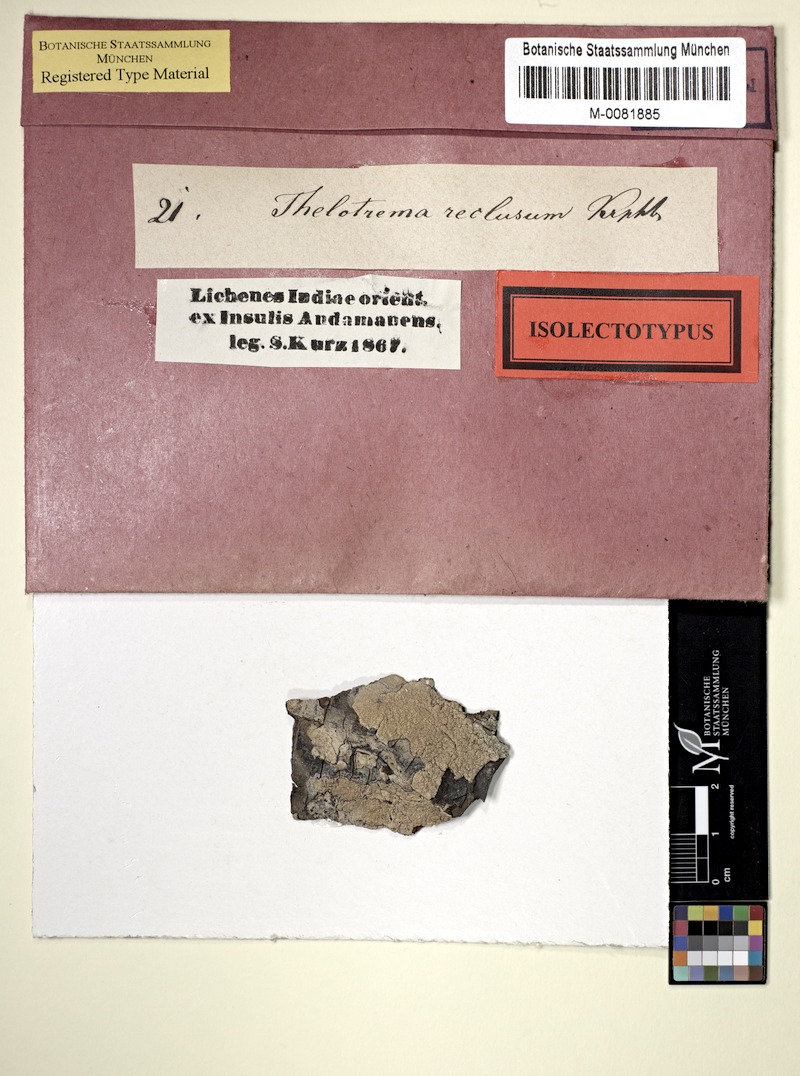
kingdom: Fungi
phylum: Ascomycota
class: Lecanoromycetes
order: Ostropales
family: Graphidaceae
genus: Leucodecton
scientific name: Leucodecton compunctellum
